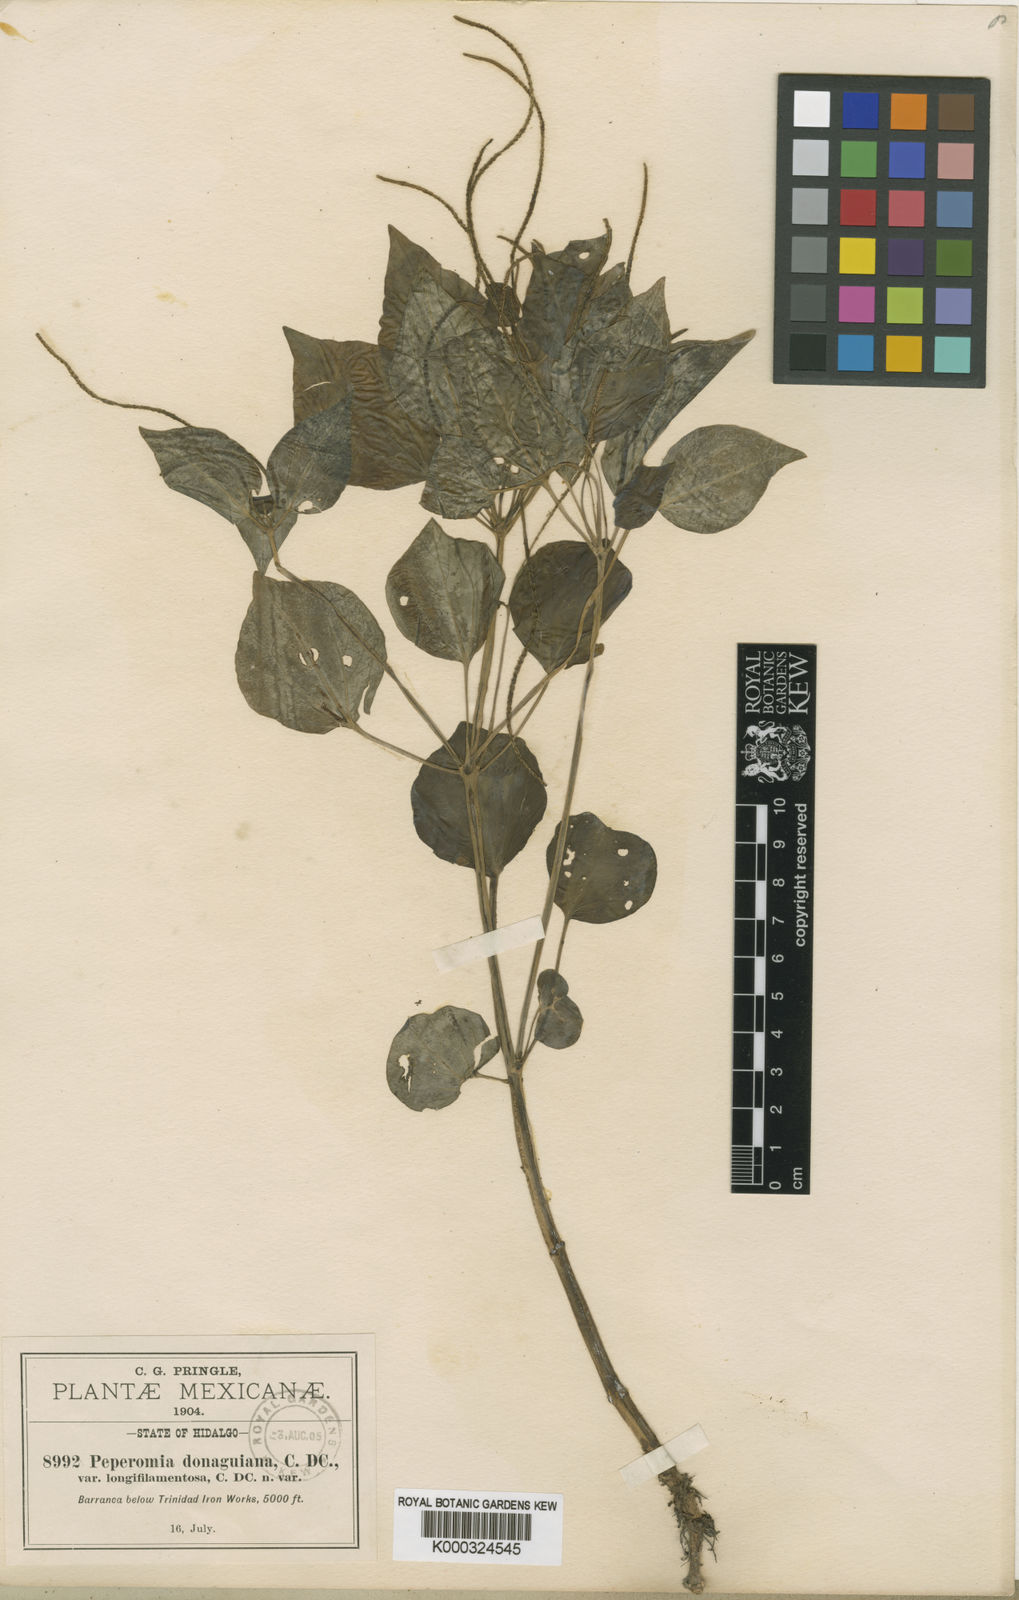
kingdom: Plantae
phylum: Tracheophyta
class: Magnoliopsida
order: Piperales
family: Piperaceae
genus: Peperomia
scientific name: Peperomia donaguiana
